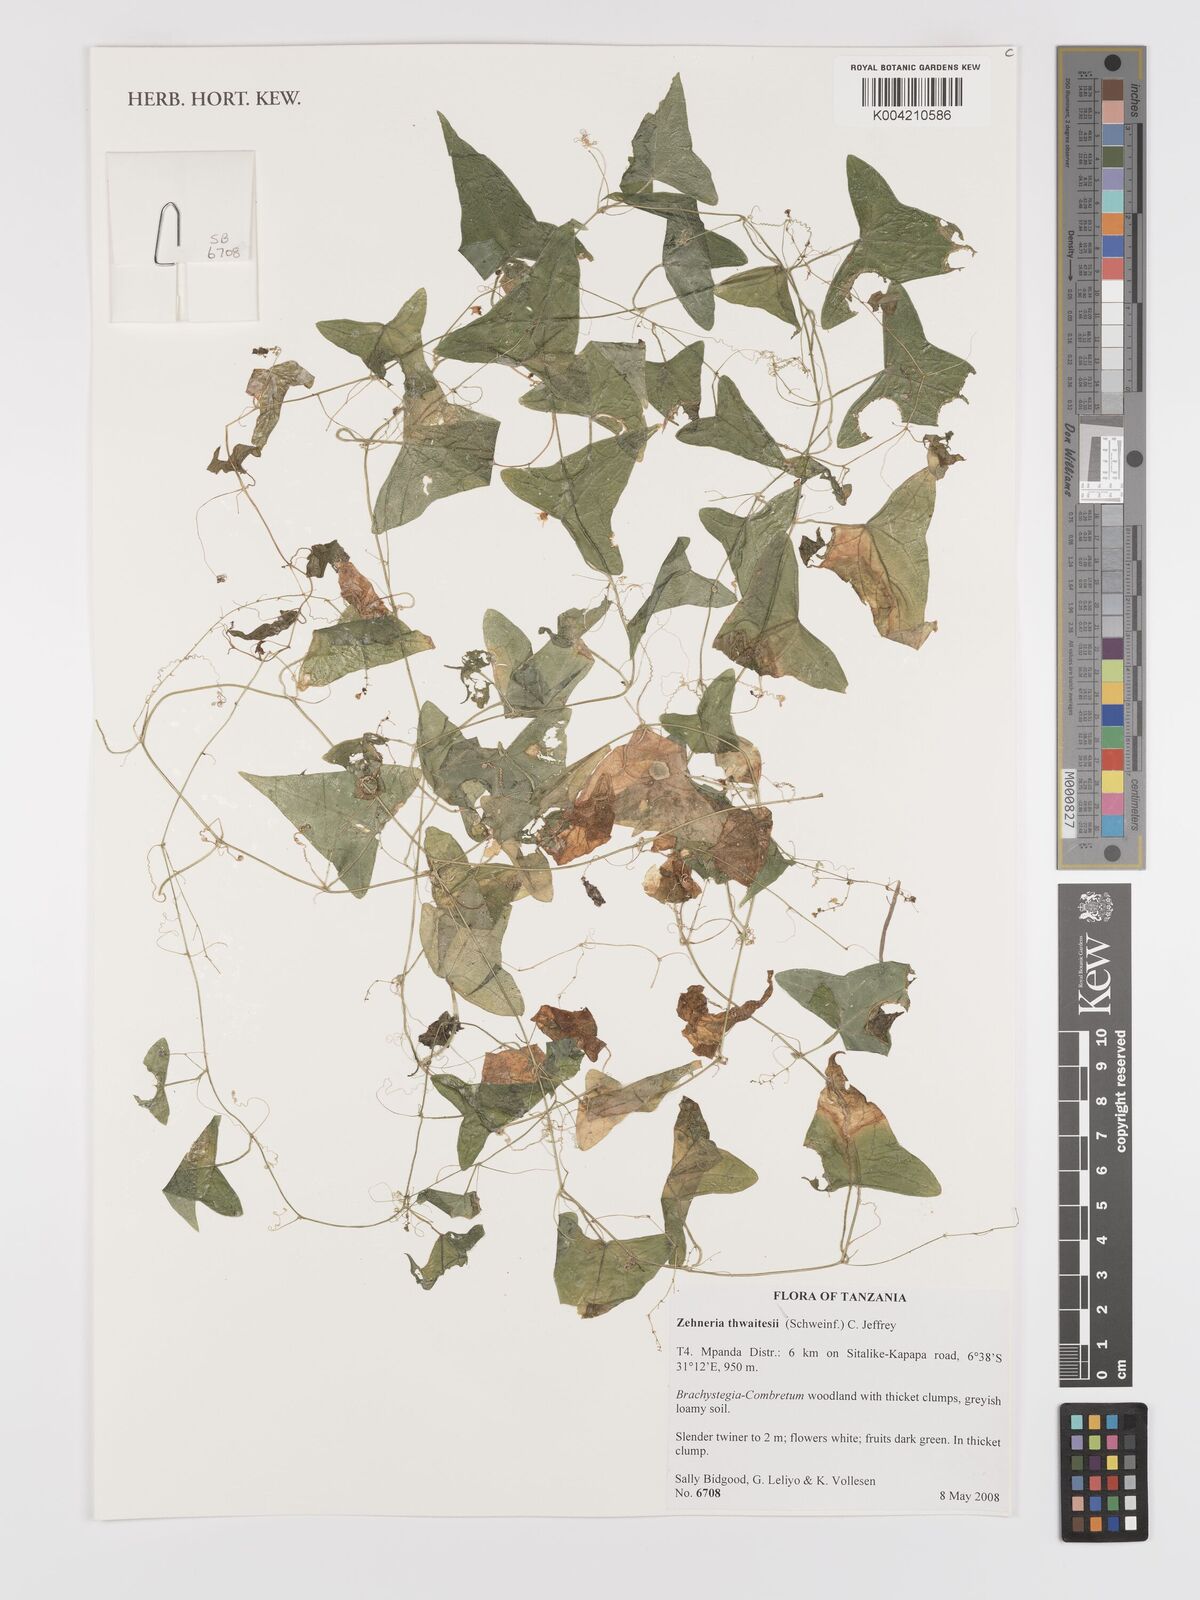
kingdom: Plantae
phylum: Tracheophyta
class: Magnoliopsida
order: Cucurbitales
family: Cucurbitaceae
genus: Zehneria
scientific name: Zehneria thwaitesii
